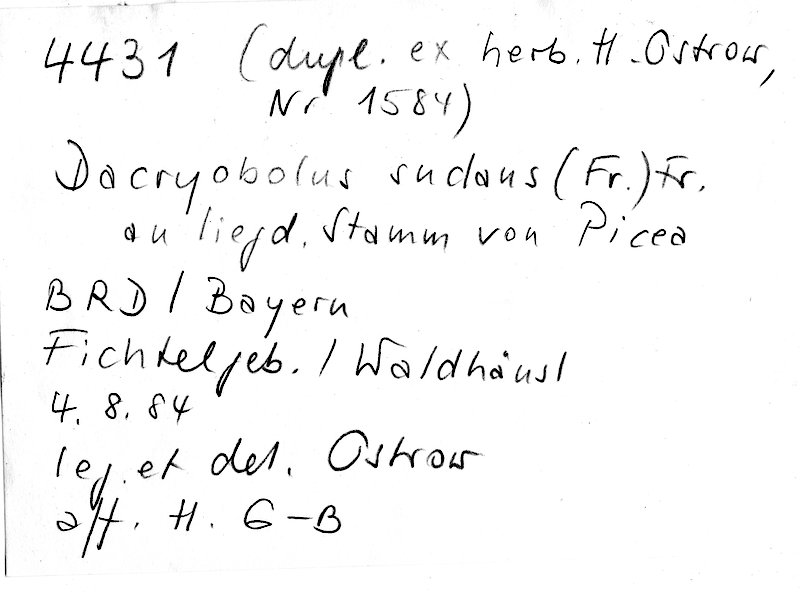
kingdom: Fungi
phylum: Basidiomycota
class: Agaricomycetes
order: Polyporales
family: Dacryobolaceae
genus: Dacryobolus
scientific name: Dacryobolus sudans
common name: Weeping toothcrust
